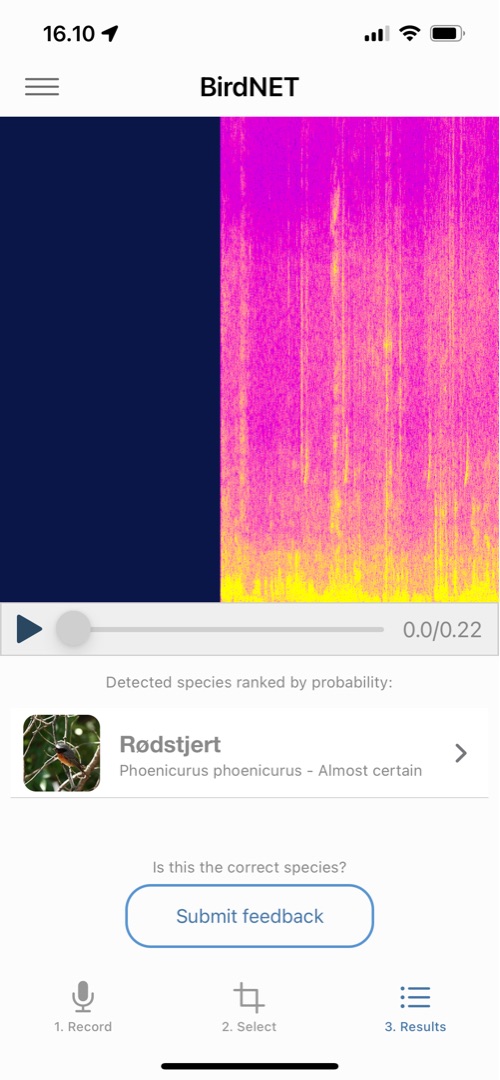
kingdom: Animalia
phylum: Chordata
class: Aves
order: Passeriformes
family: Muscicapidae
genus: Phoenicurus
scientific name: Phoenicurus phoenicurus
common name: Rødstjert
